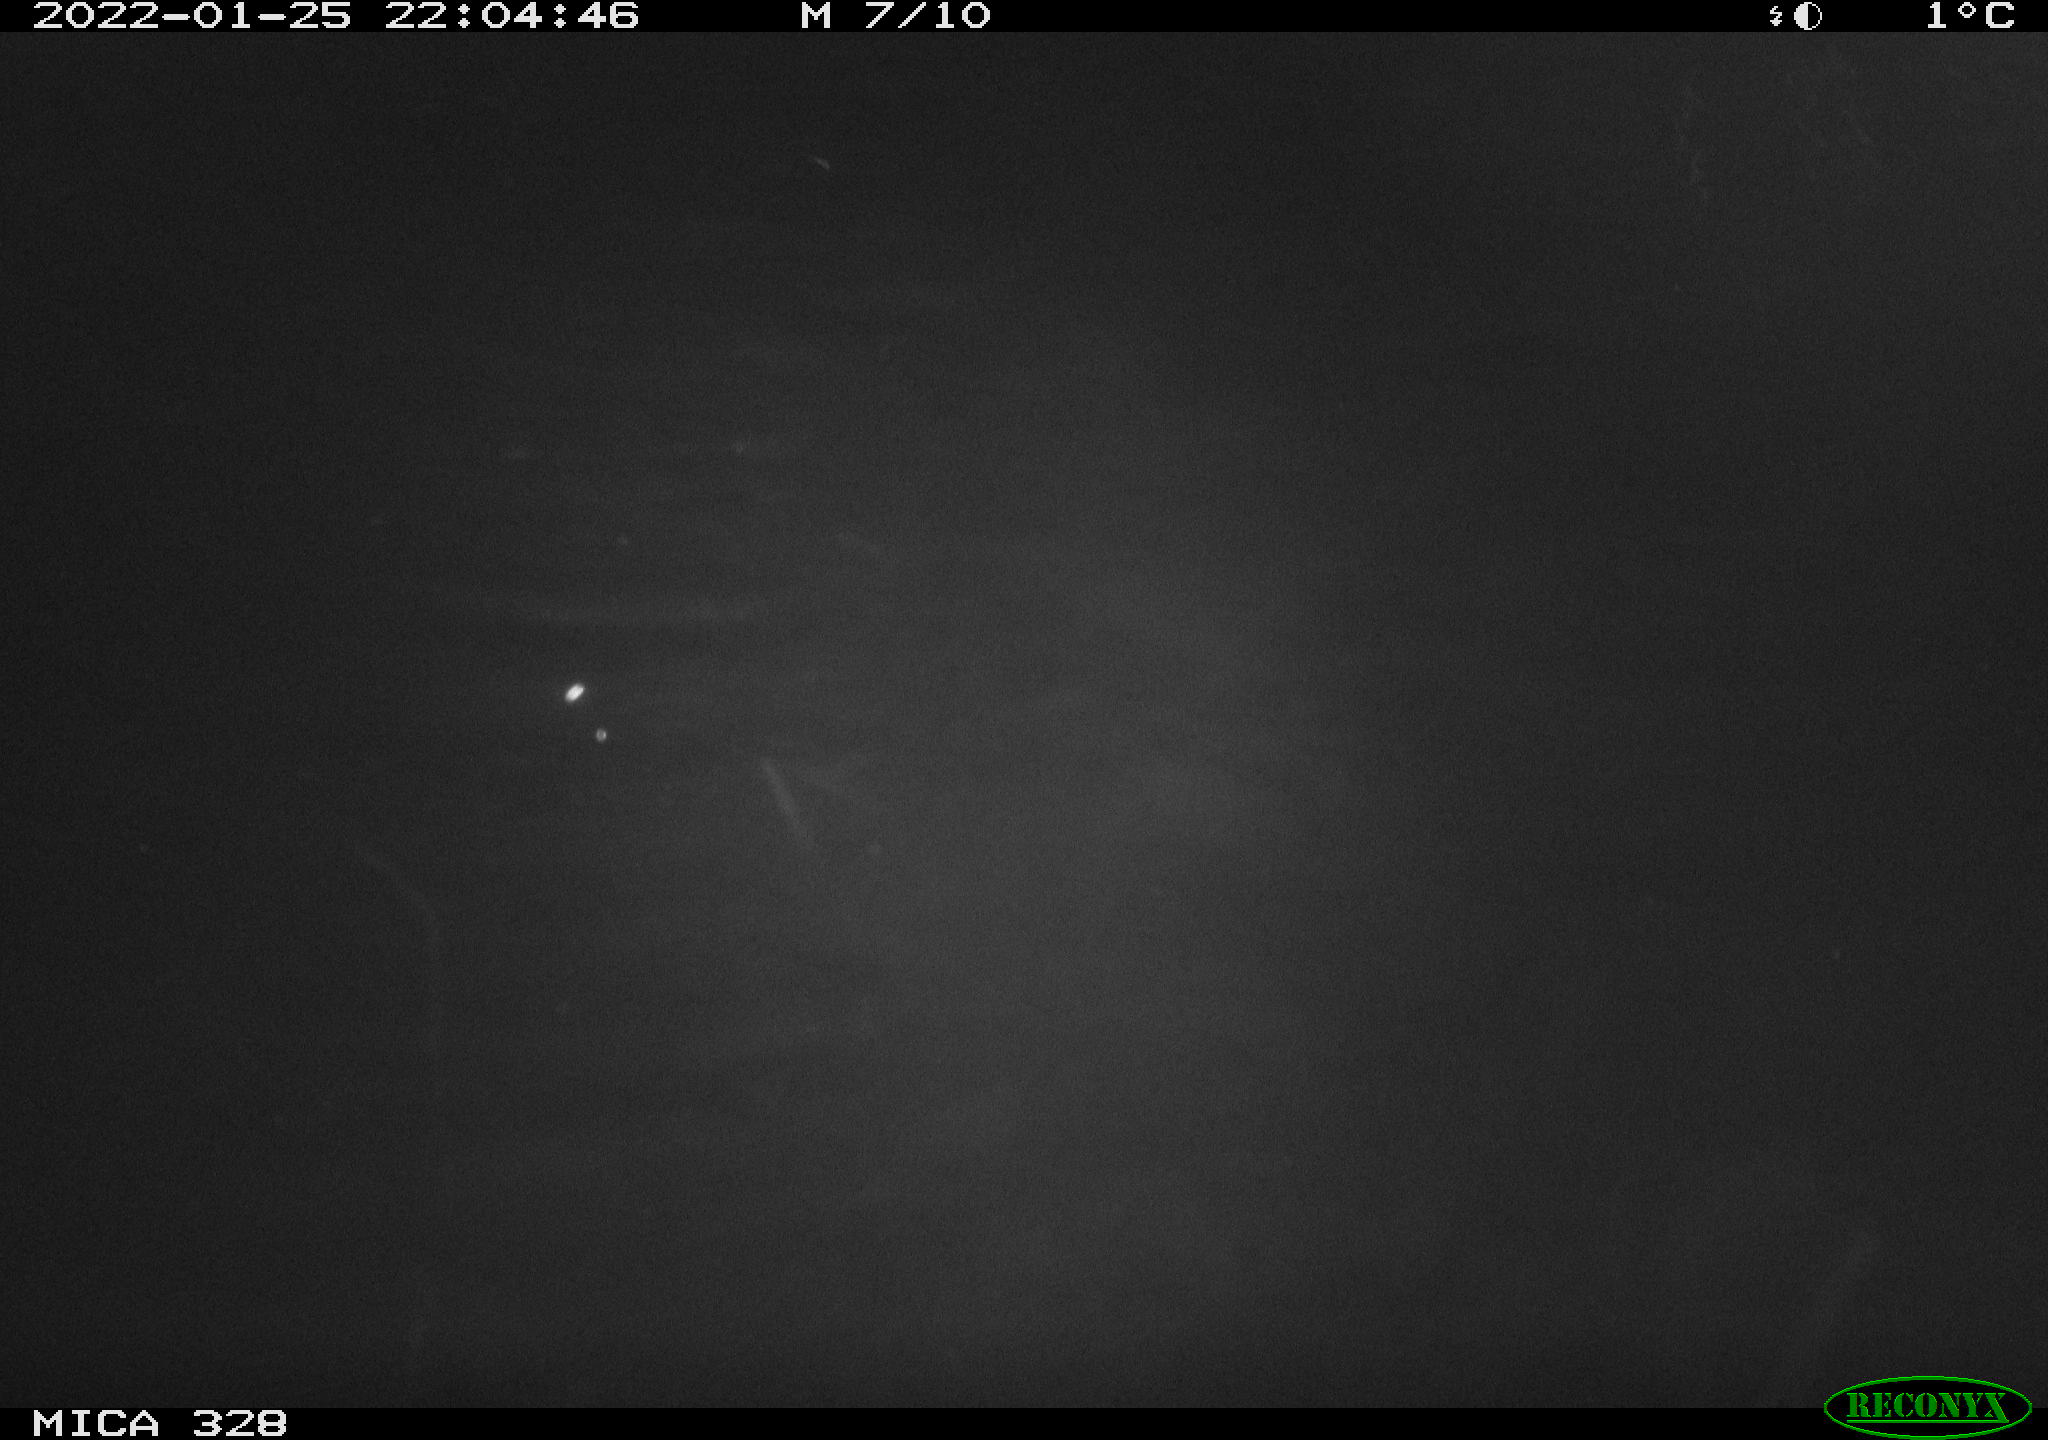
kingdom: Animalia
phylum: Chordata
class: Mammalia
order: Rodentia
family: Cricetidae
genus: Ondatra
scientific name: Ondatra zibethicus
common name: Muskrat
